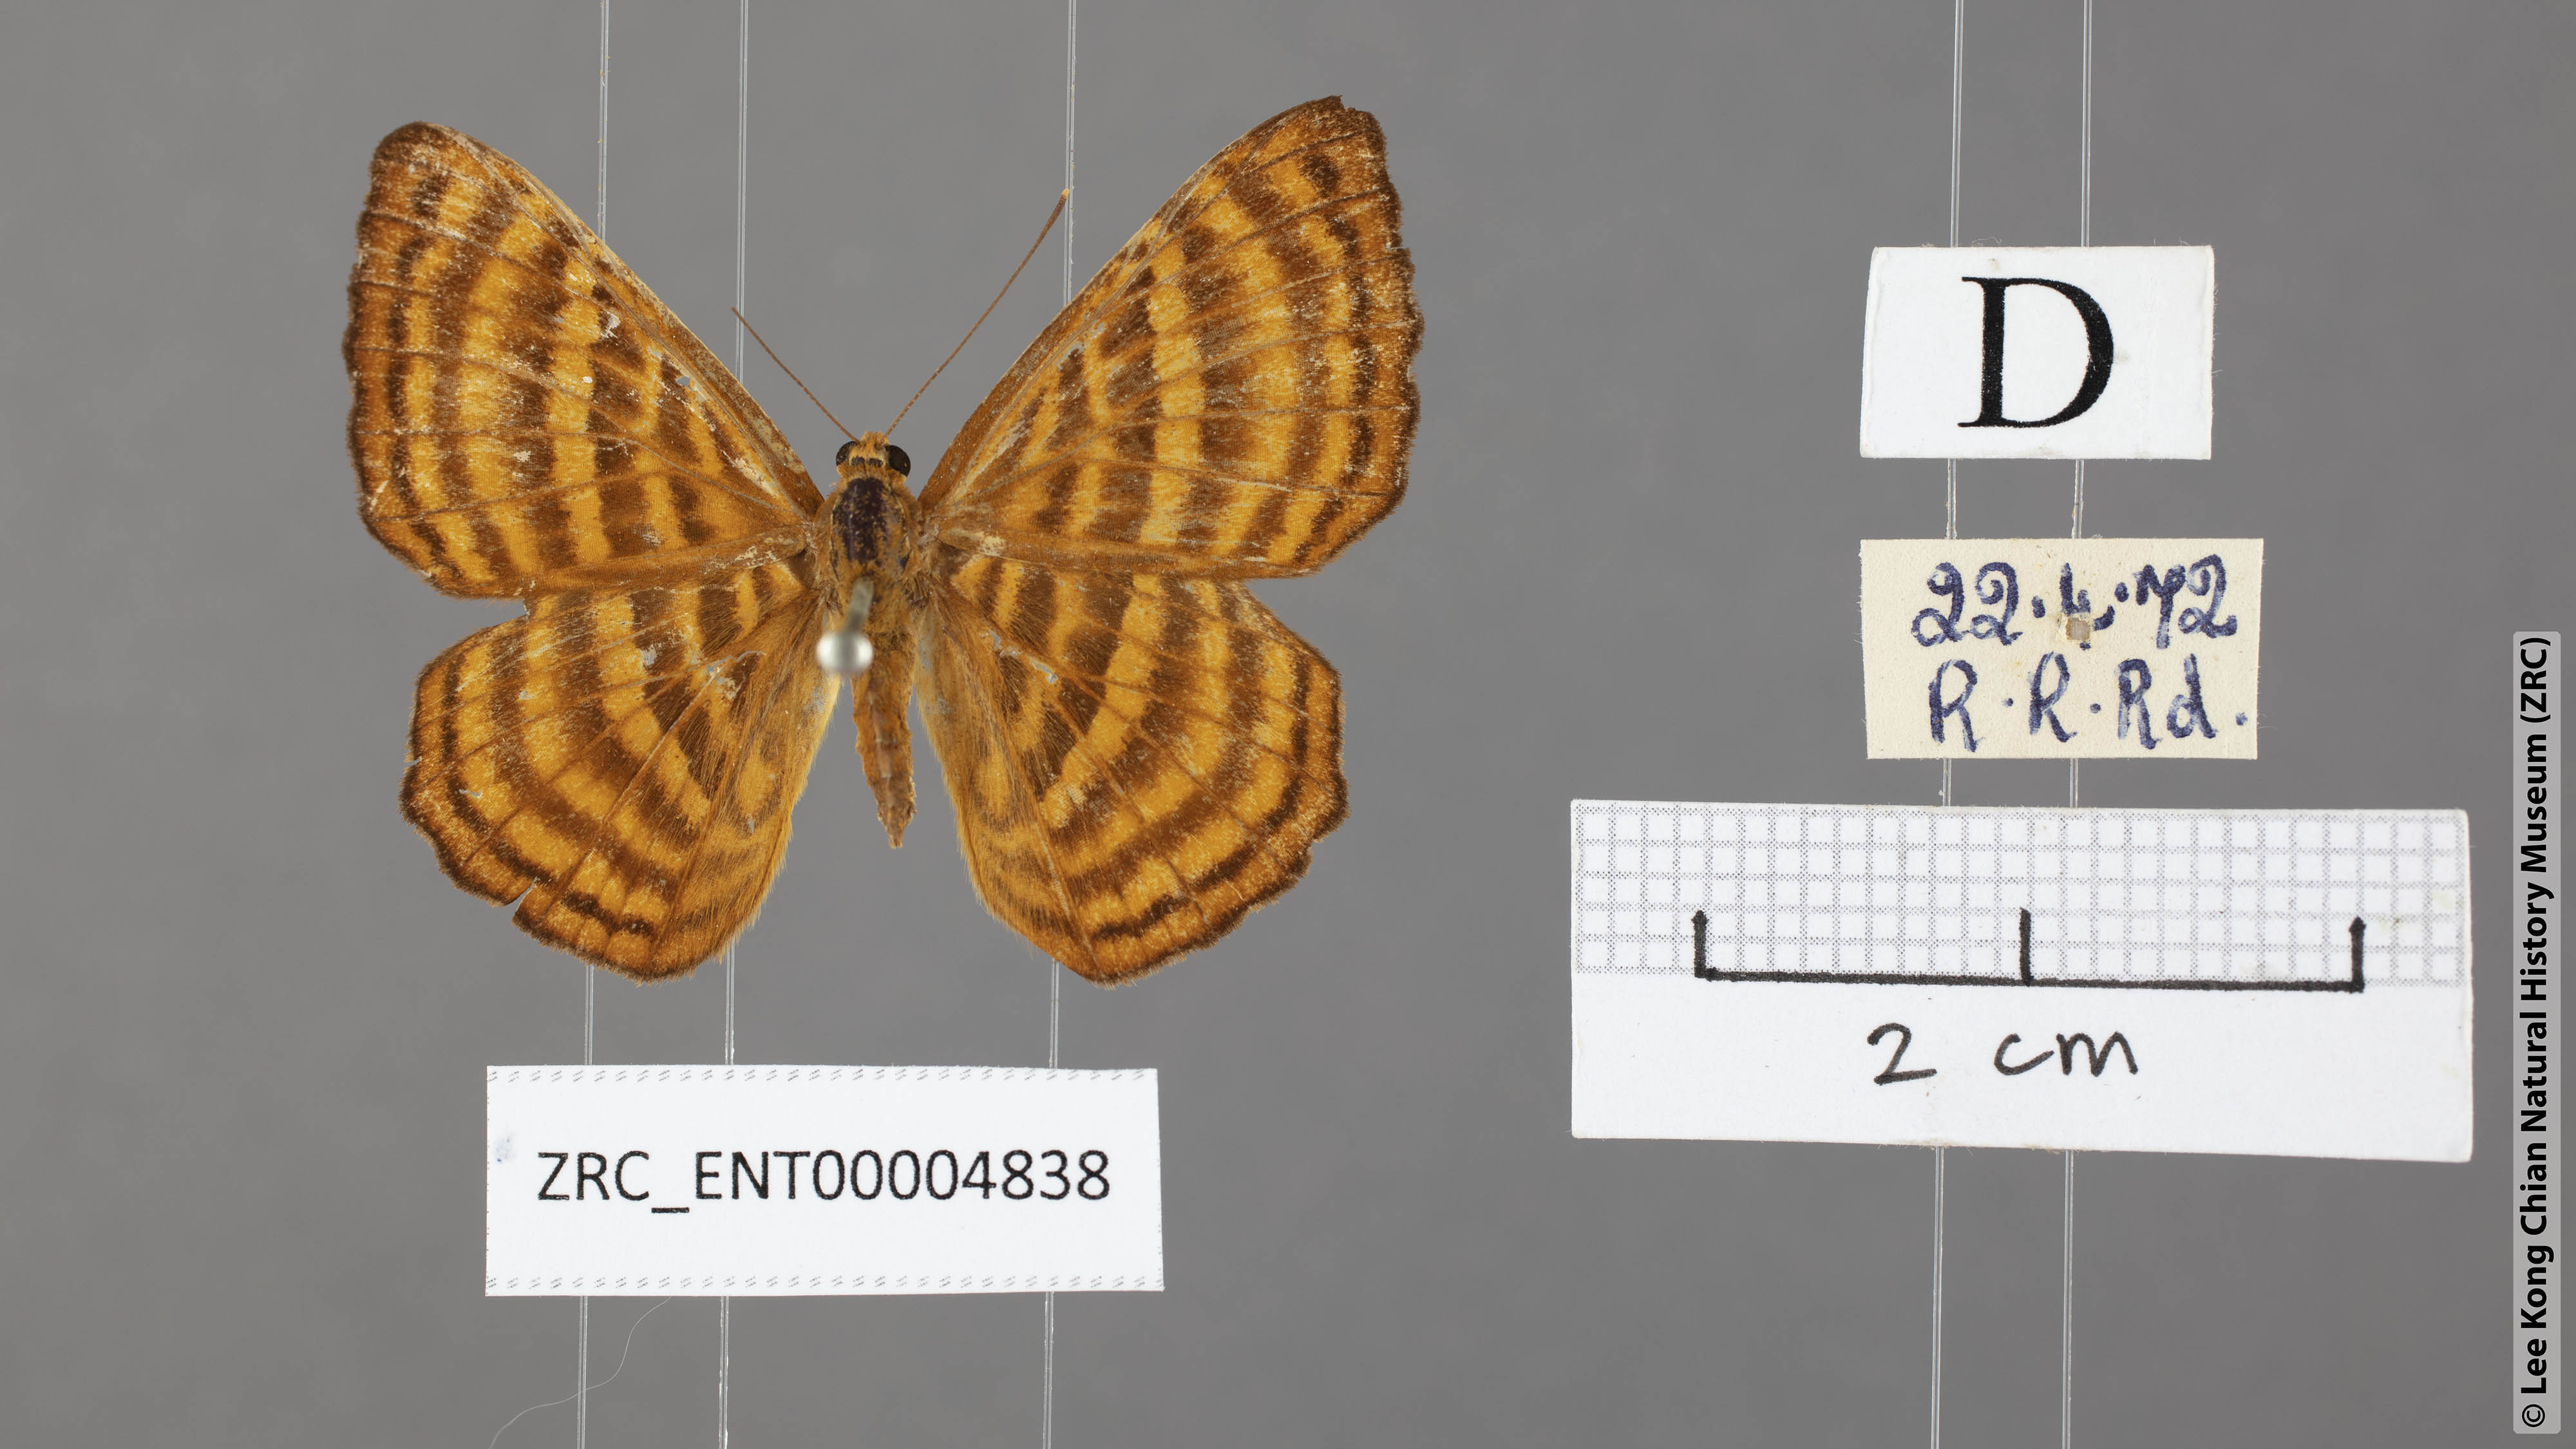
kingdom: Animalia
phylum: Arthropoda
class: Insecta
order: Lepidoptera
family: Riodinidae
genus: Zemeros
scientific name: Zemeros emesoides
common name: Malay punchinello
